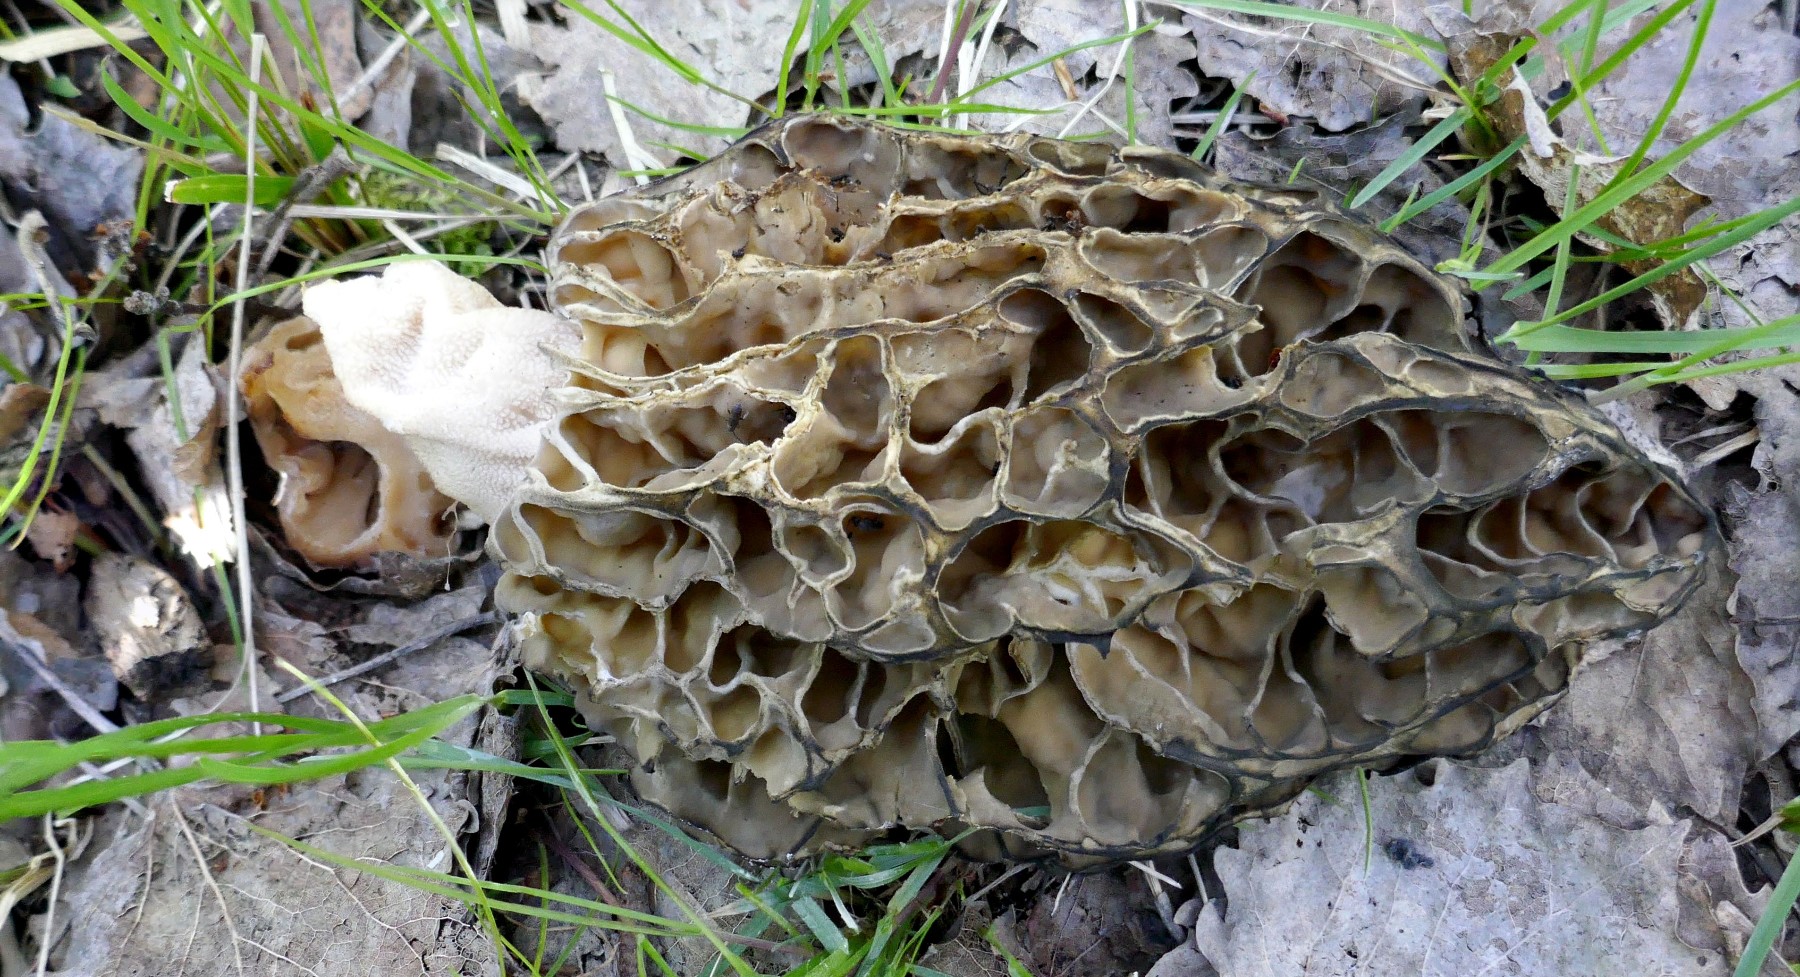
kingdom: Fungi
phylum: Ascomycota
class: Pezizomycetes
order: Pezizales
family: Morchellaceae
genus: Morchella
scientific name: Morchella esculenta
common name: Morel
